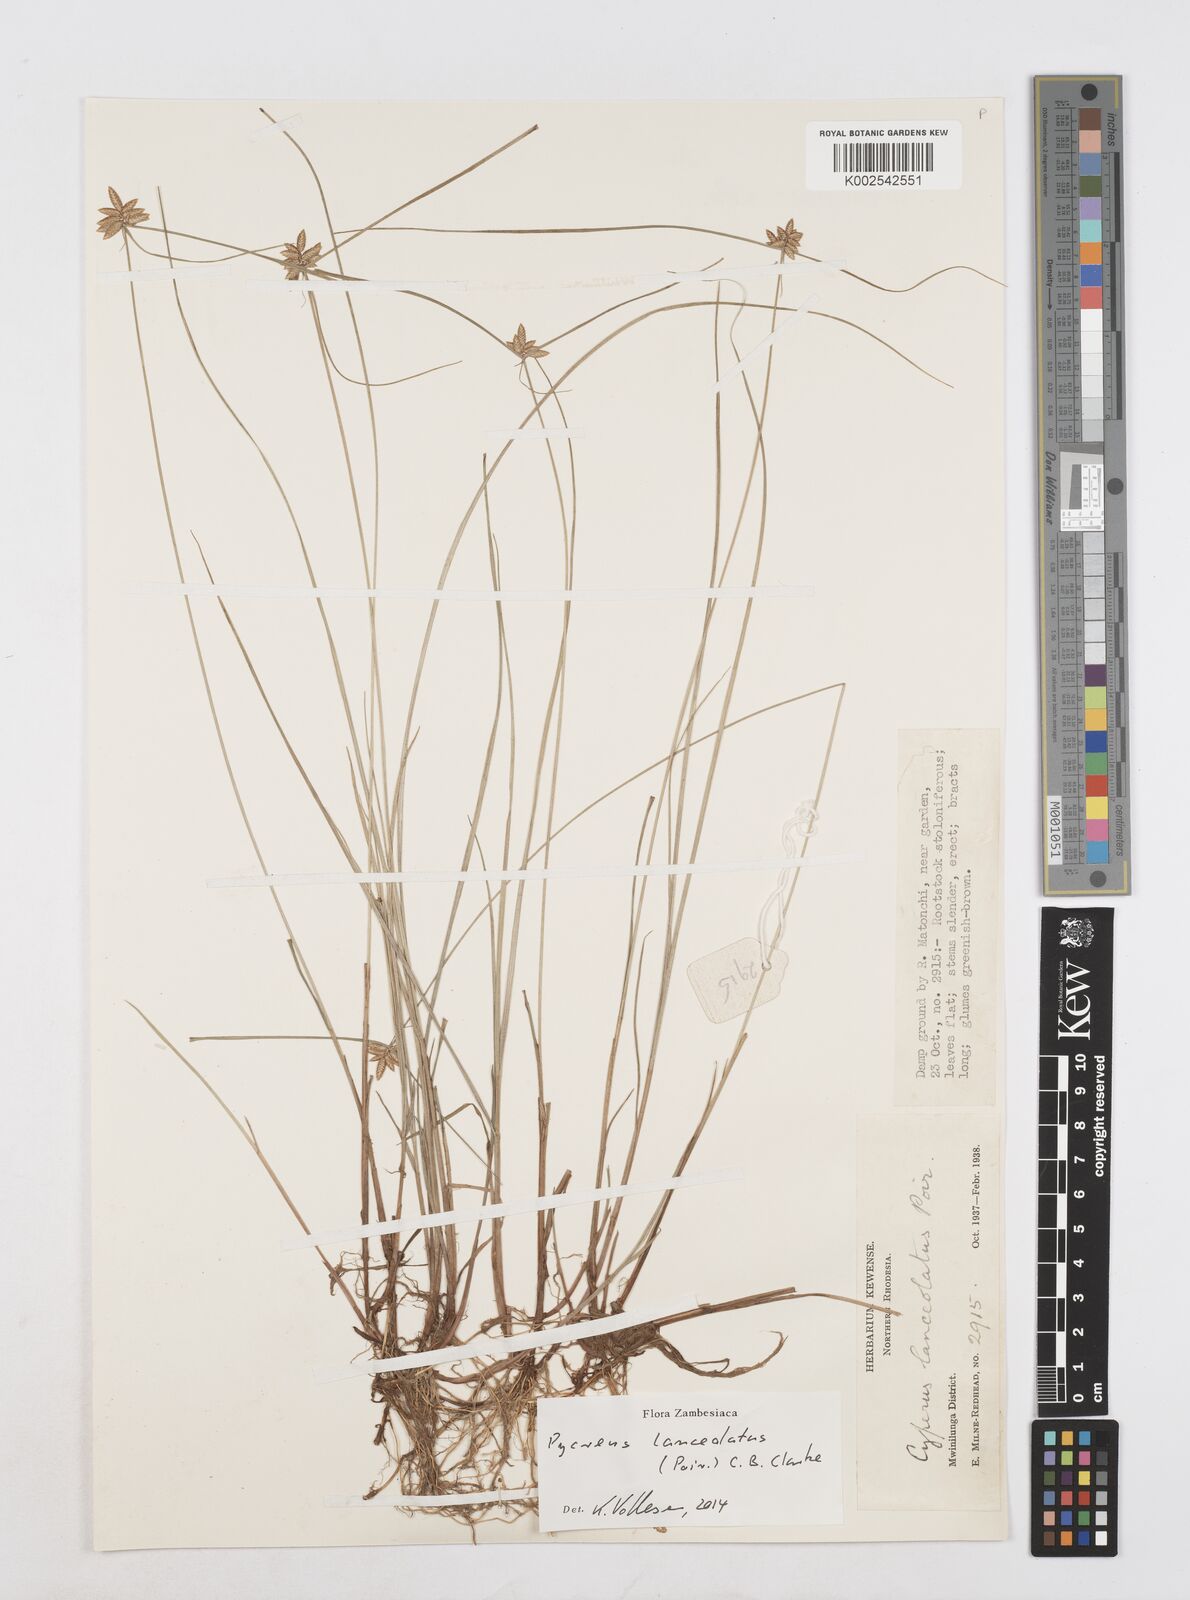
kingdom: Plantae
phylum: Tracheophyta
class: Liliopsida
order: Poales
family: Cyperaceae
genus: Cyperus
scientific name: Cyperus
